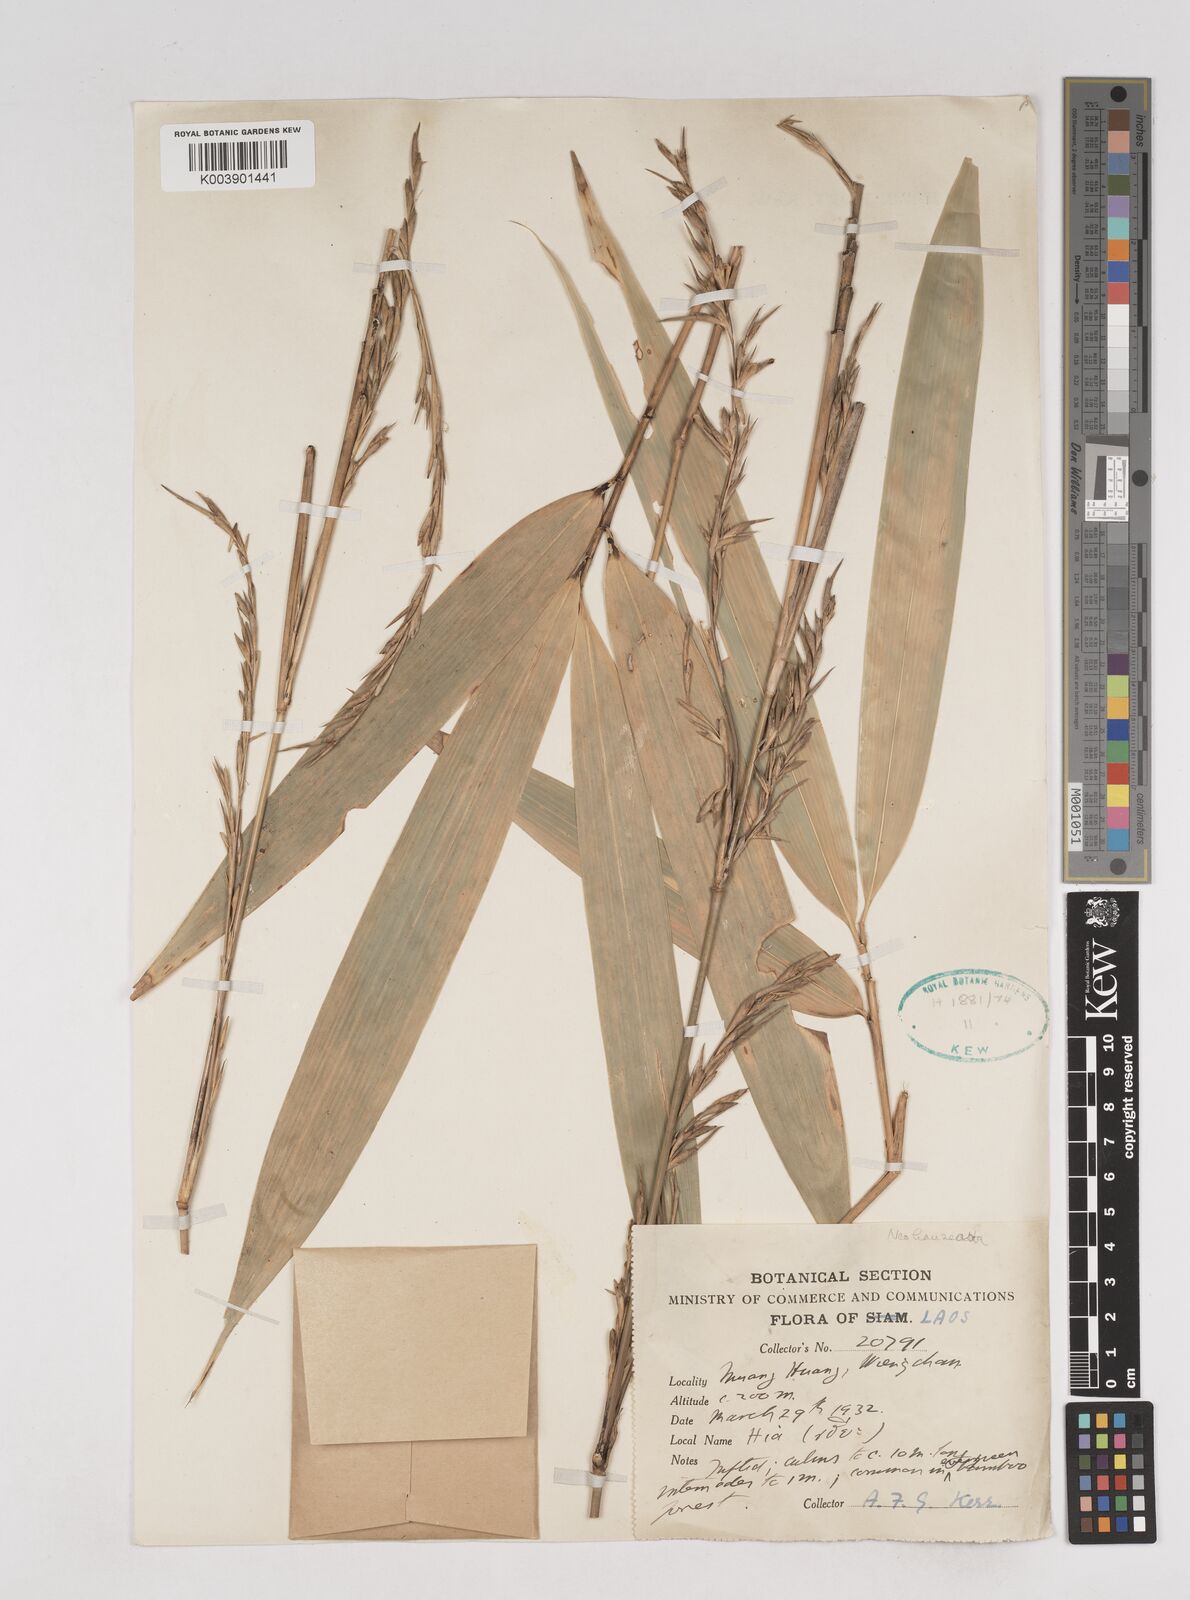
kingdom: Plantae
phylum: Tracheophyta
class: Liliopsida
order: Poales
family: Poaceae
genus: Schizostachyum
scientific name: Schizostachyum
